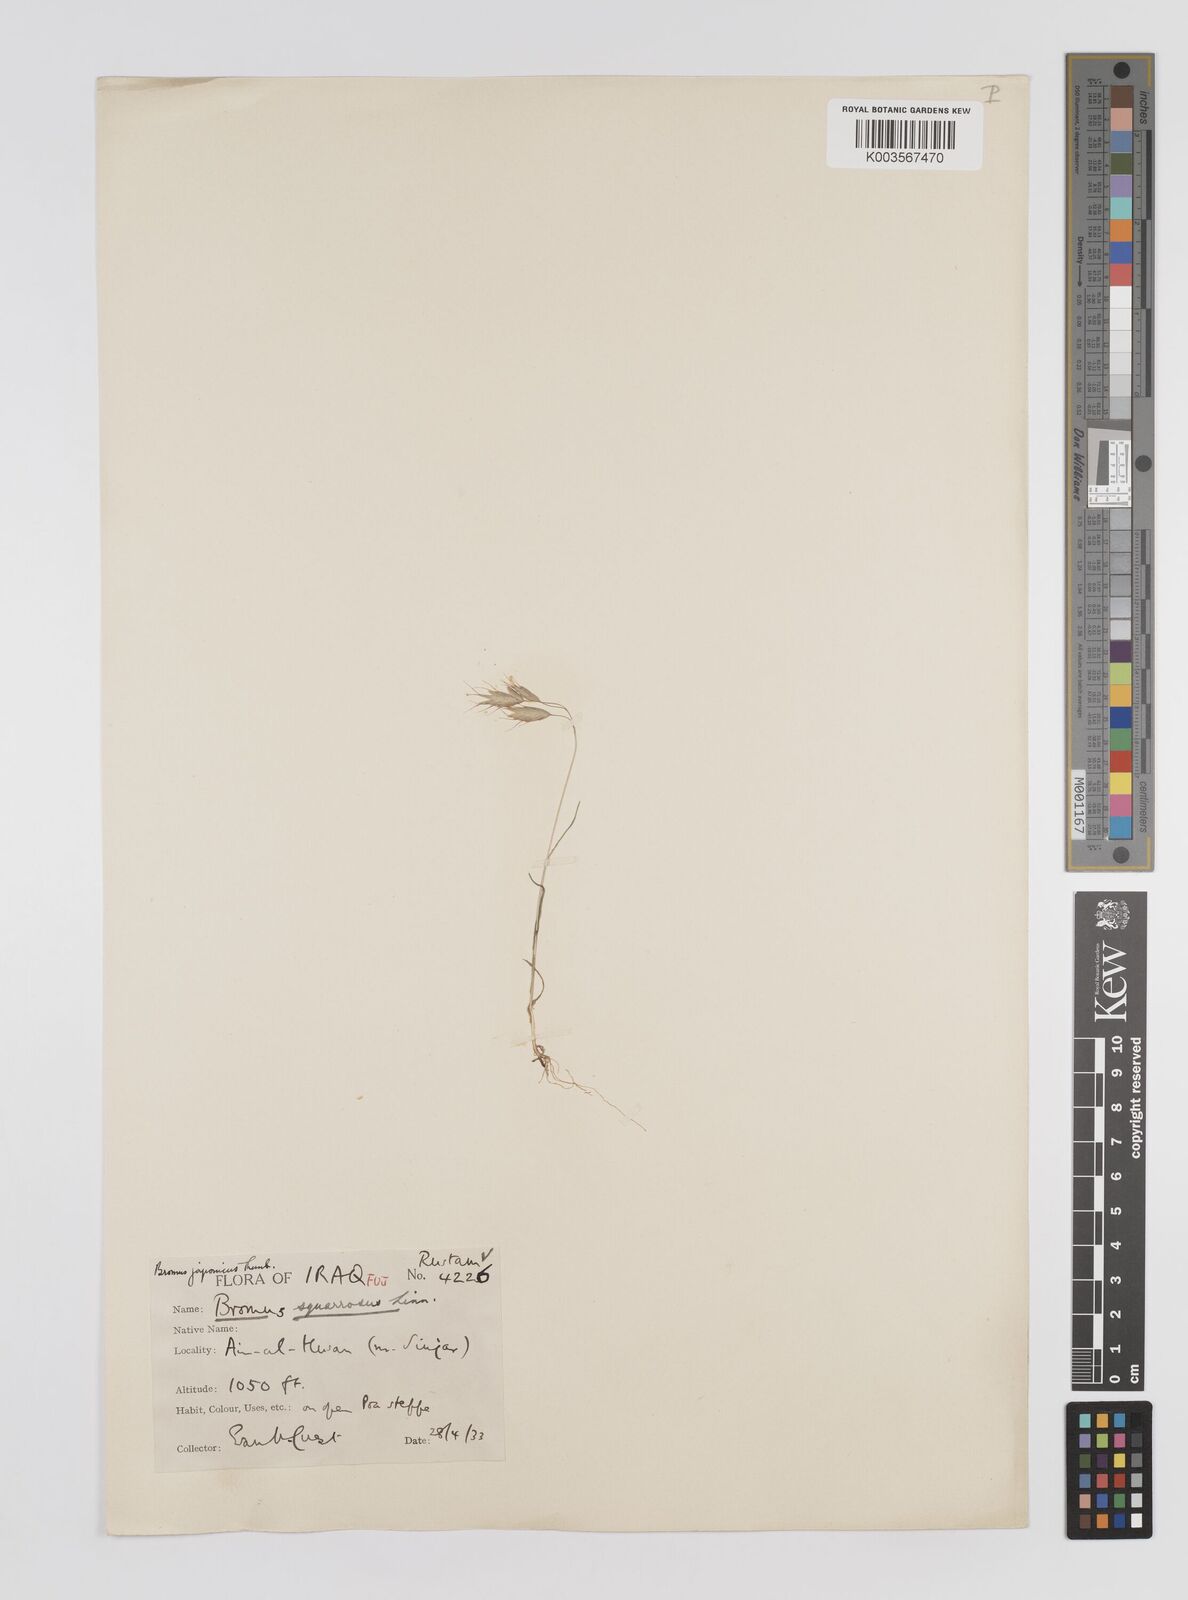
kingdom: Plantae
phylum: Tracheophyta
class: Liliopsida
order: Poales
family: Poaceae
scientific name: Poaceae
